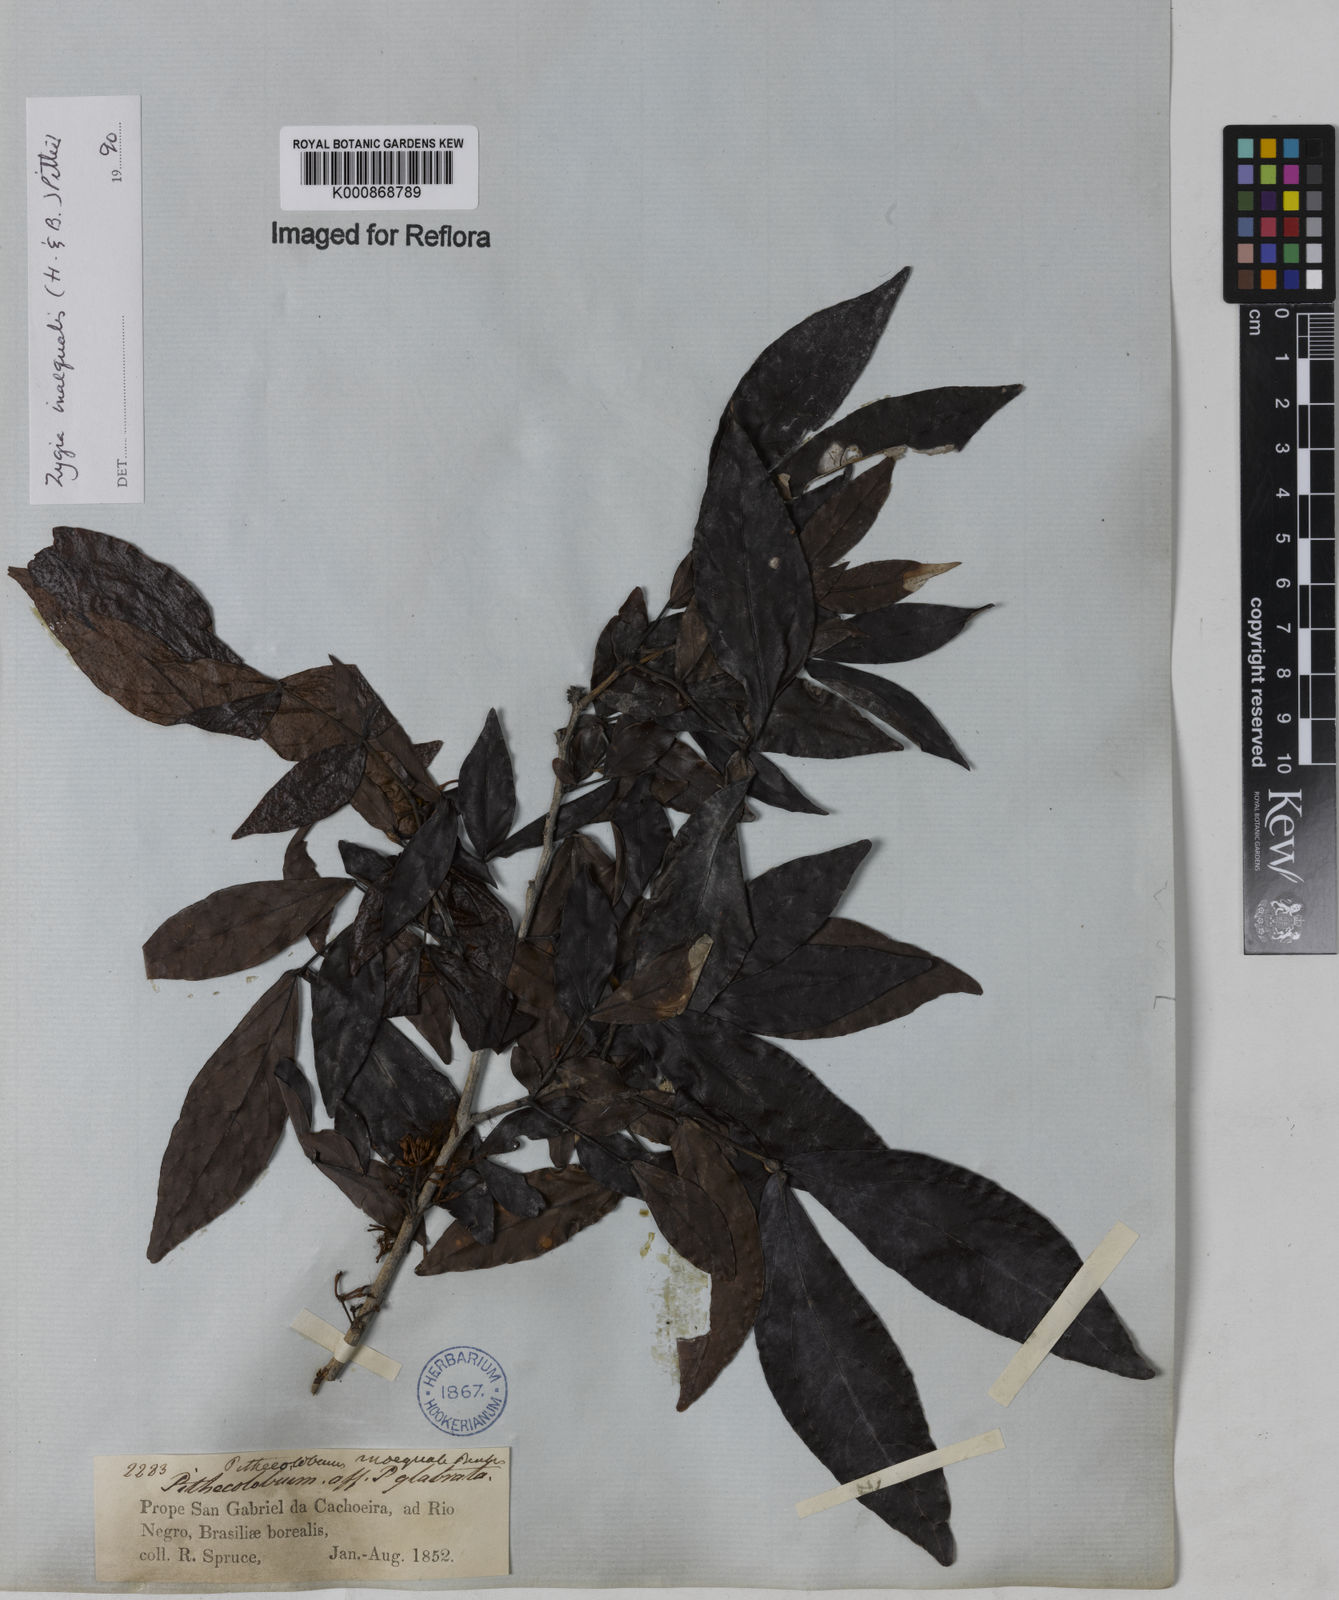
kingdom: Plantae
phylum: Tracheophyta
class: Magnoliopsida
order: Fabales
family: Fabaceae
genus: Zygia
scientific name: Zygia inaequalis
